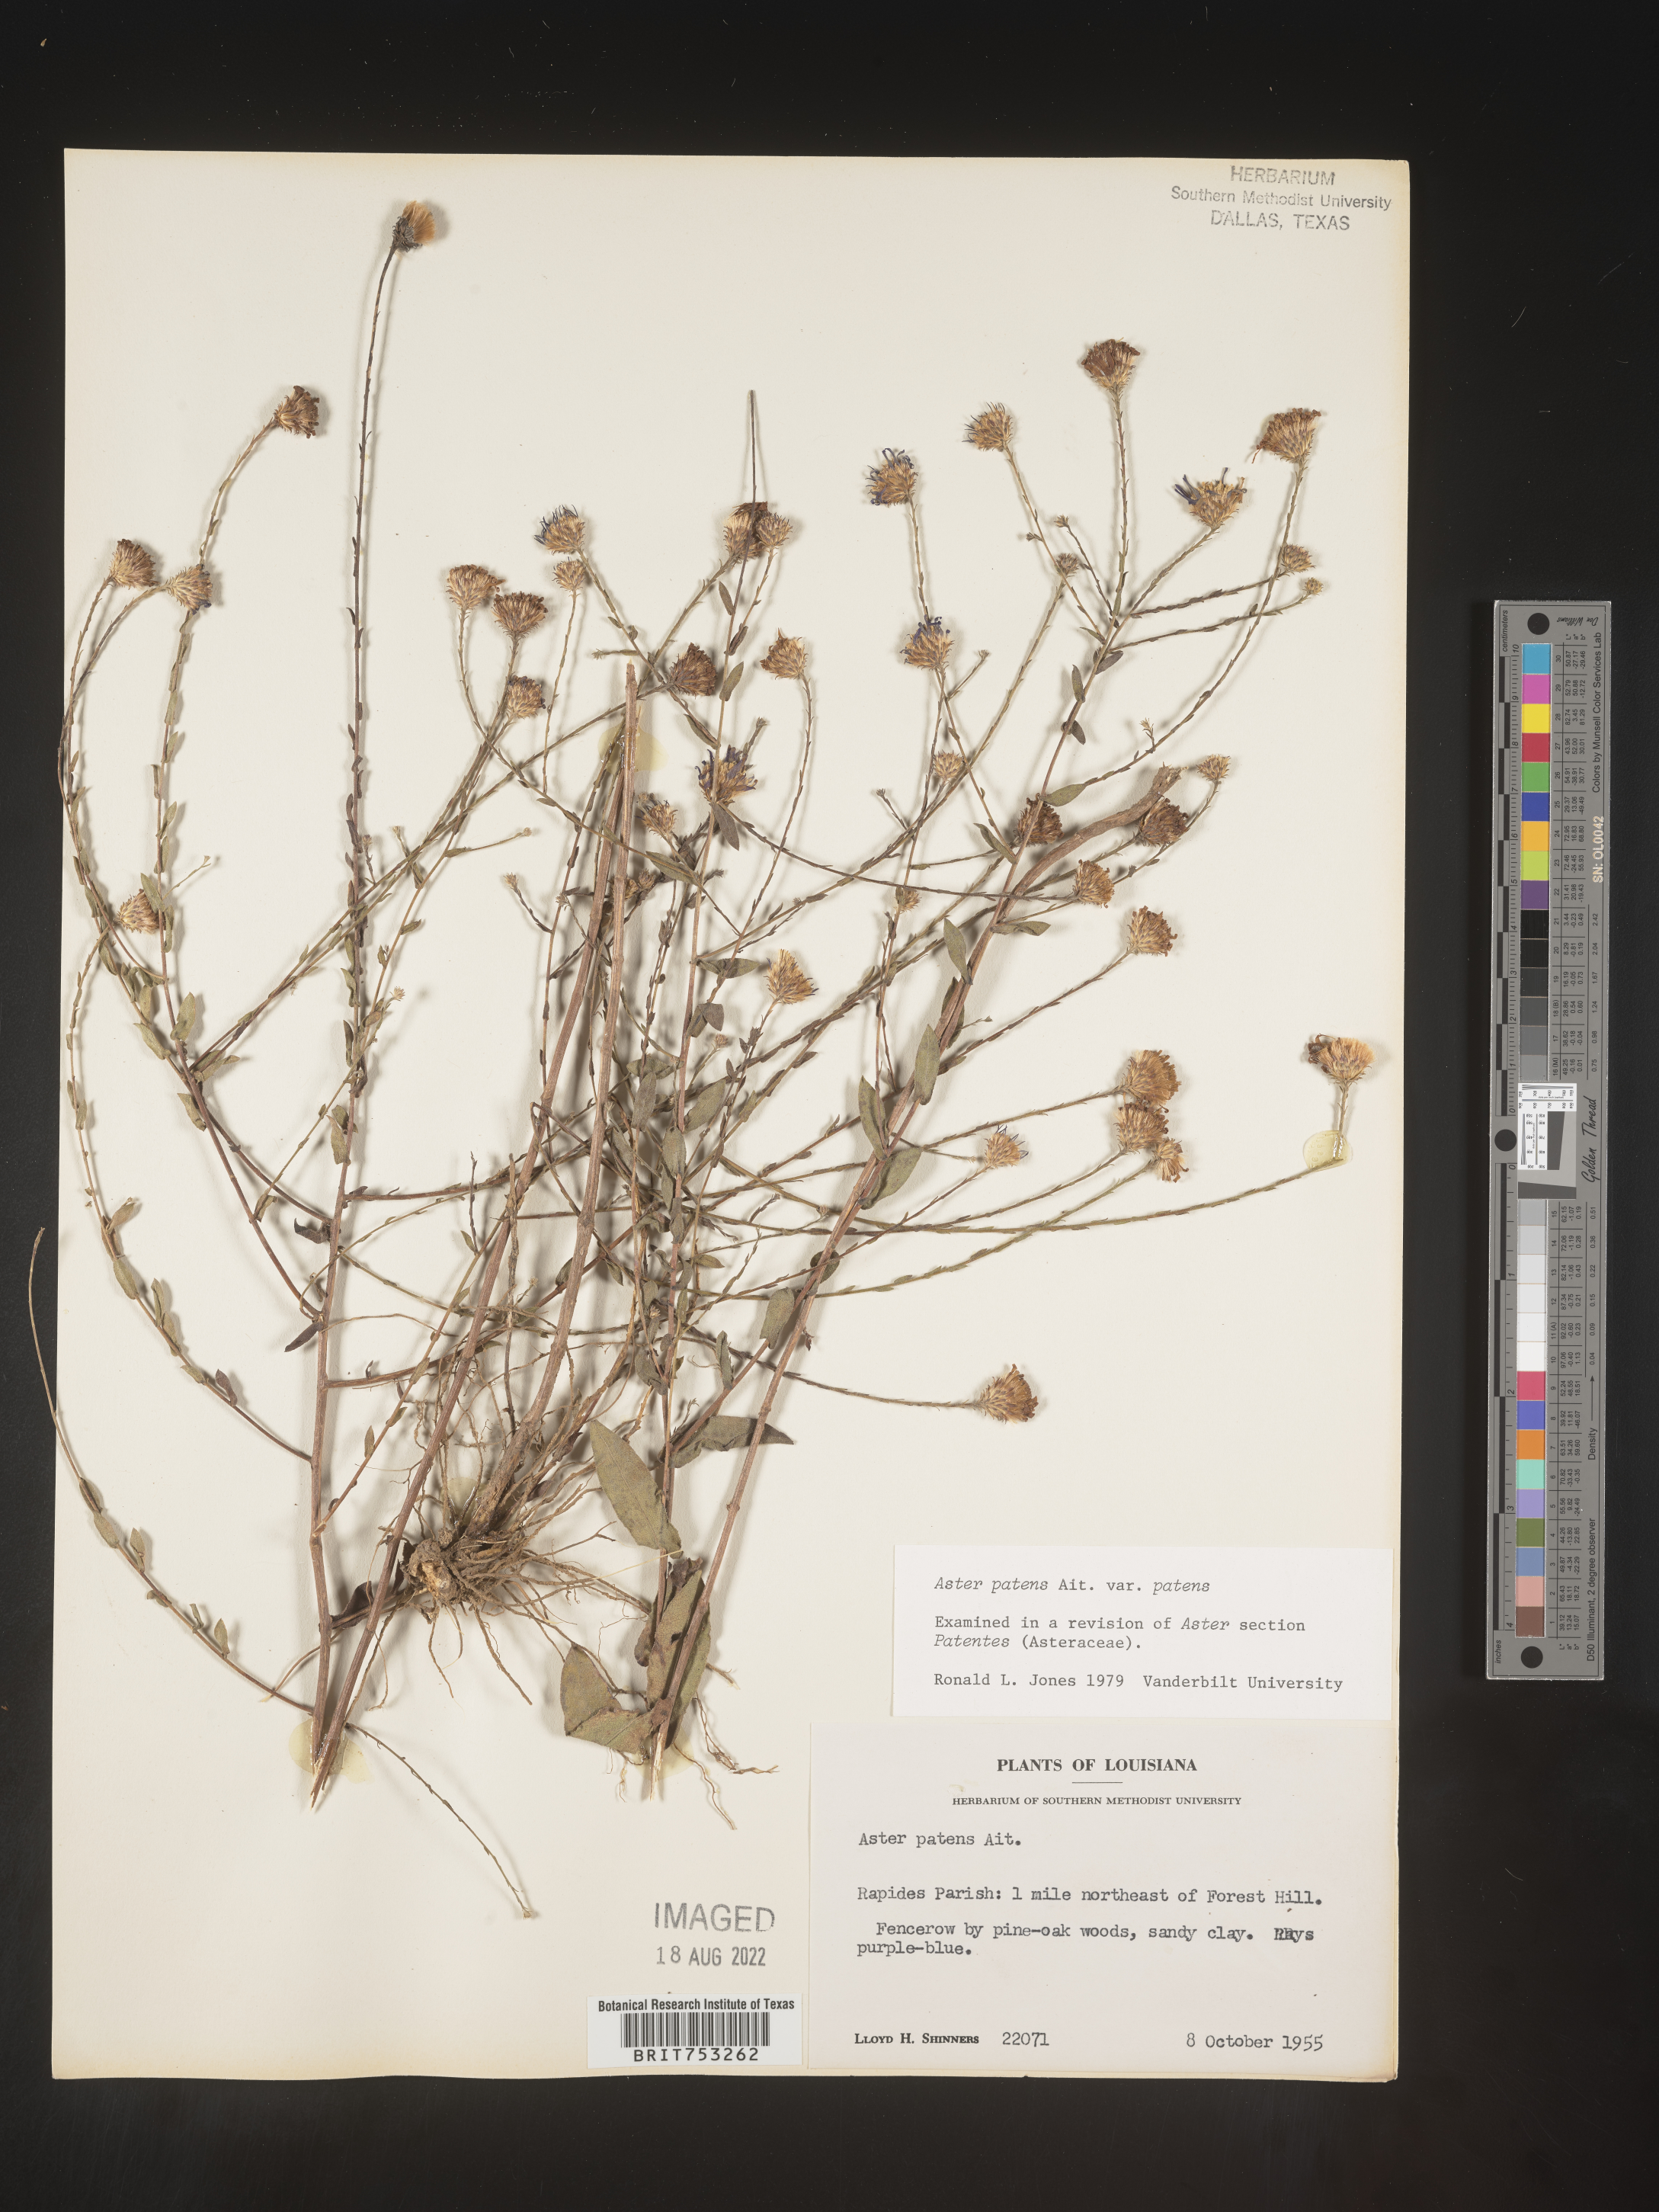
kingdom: Plantae
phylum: Tracheophyta
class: Magnoliopsida
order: Asterales
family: Asteraceae
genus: Symphyotrichum
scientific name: Symphyotrichum patens
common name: Late purple aster
